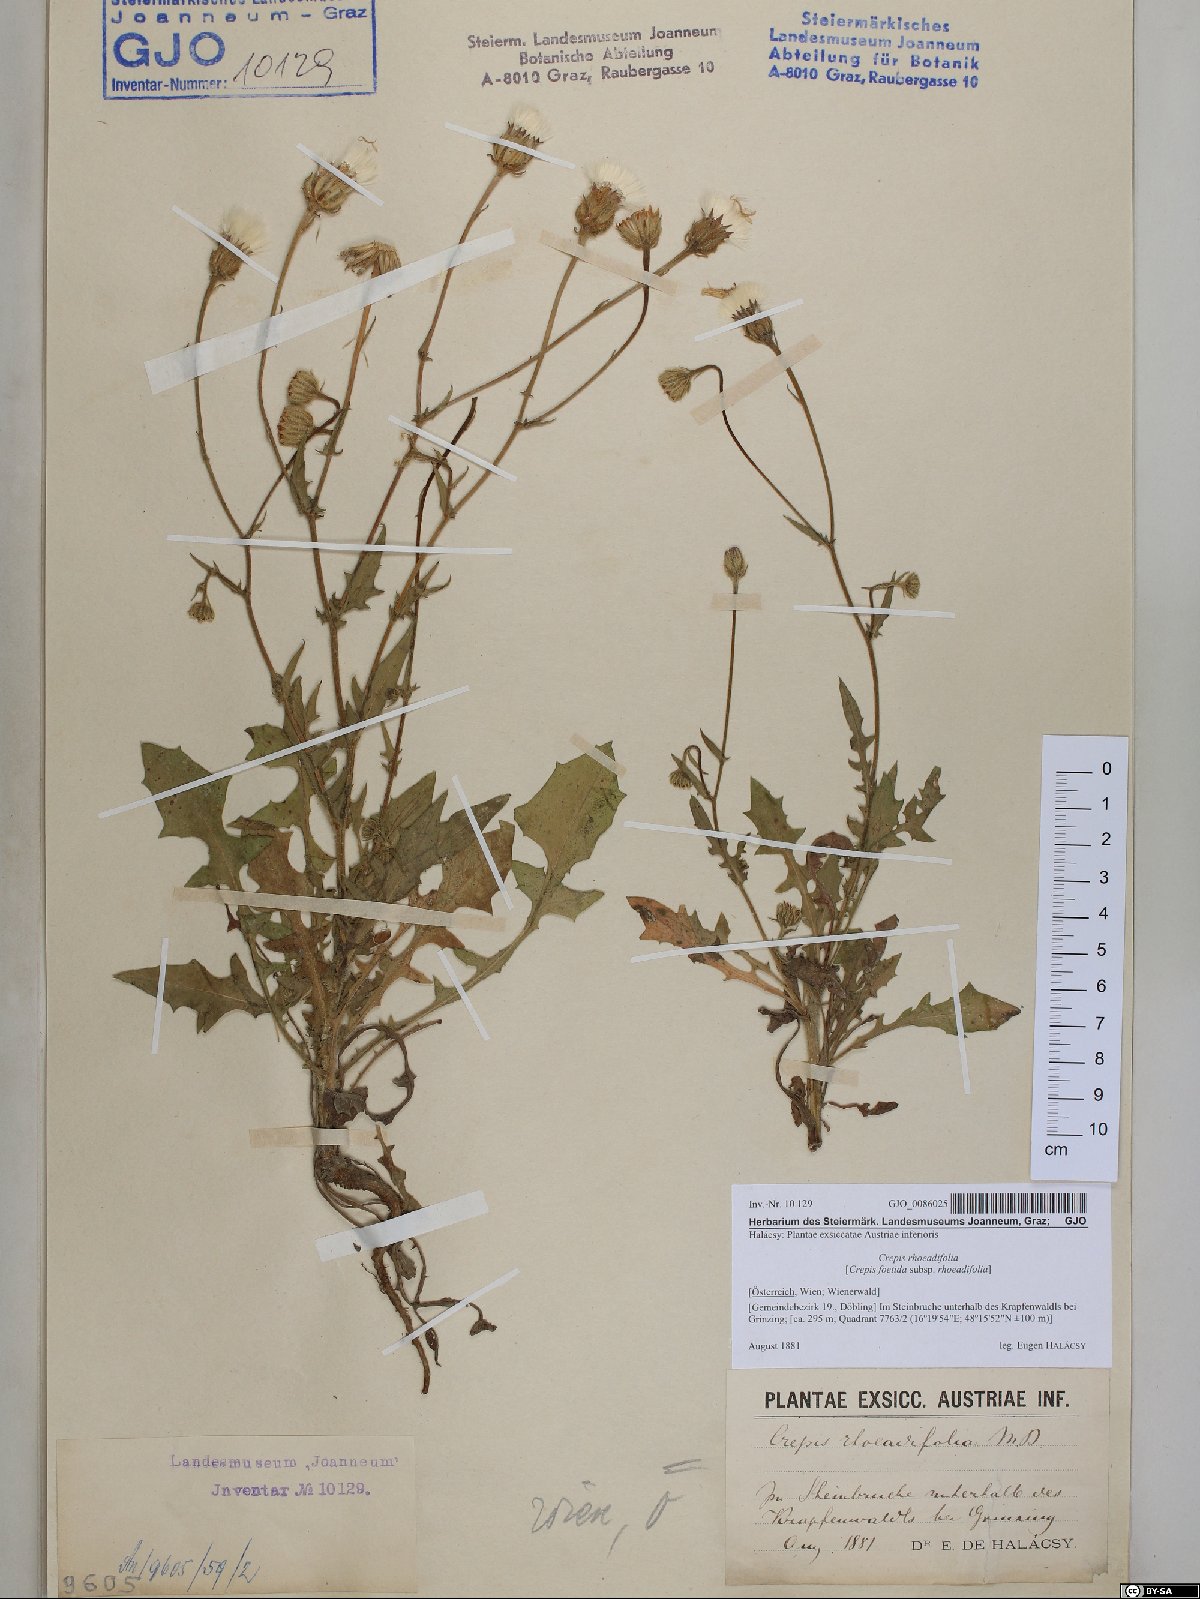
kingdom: Plantae
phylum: Tracheophyta
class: Magnoliopsida
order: Asterales
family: Asteraceae
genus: Crepis
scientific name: Crepis foetida
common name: Stinking hawk's-beard
